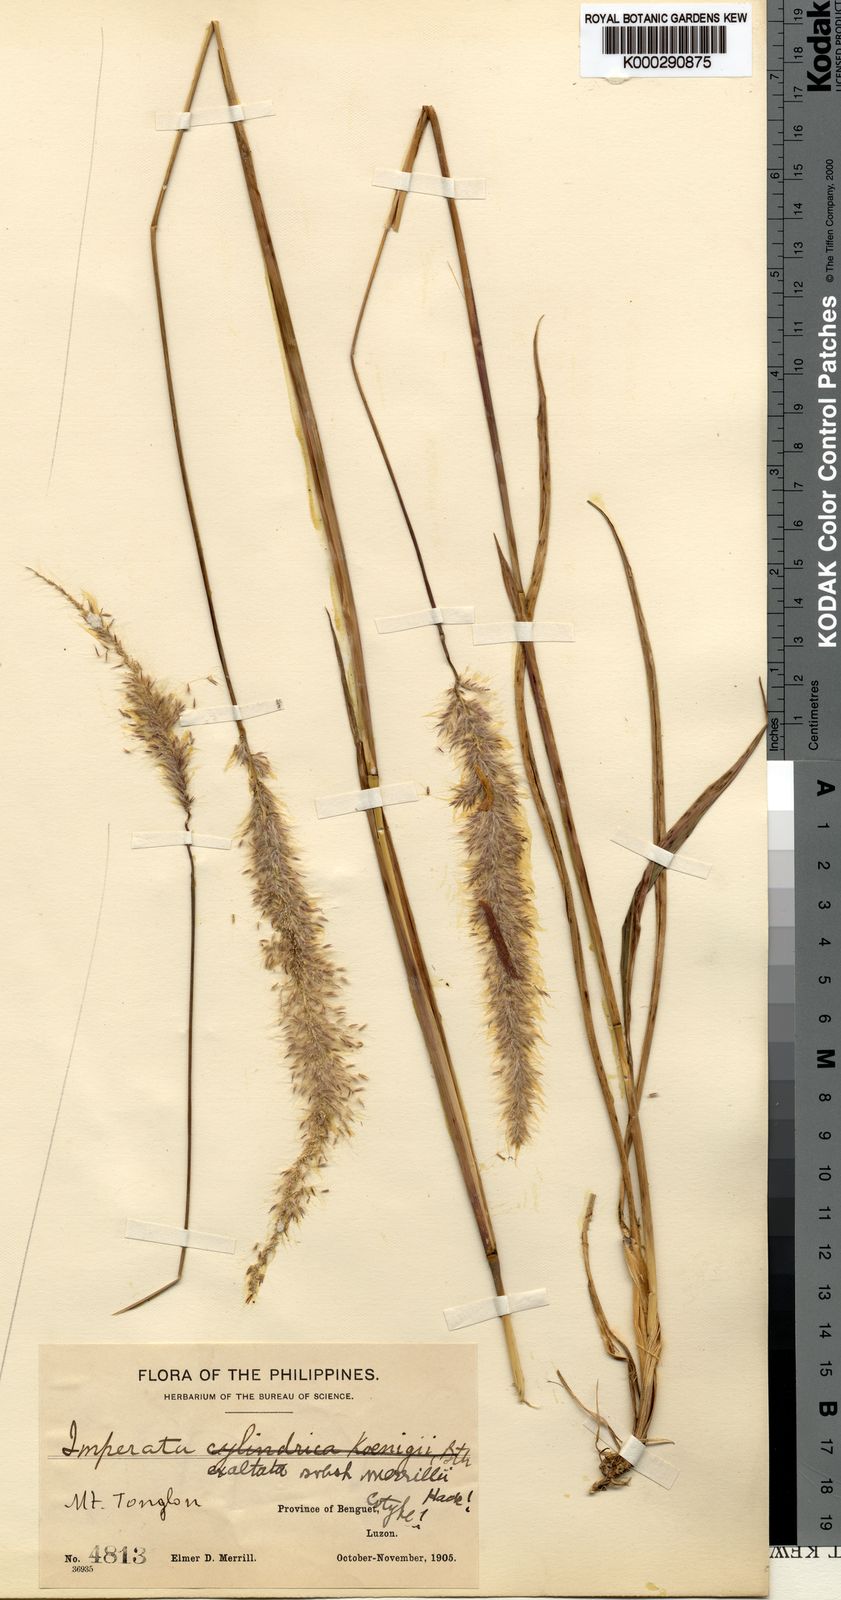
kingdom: Plantae
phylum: Tracheophyta
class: Liliopsida
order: Poales
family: Poaceae
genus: Imperata
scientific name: Imperata conferta
